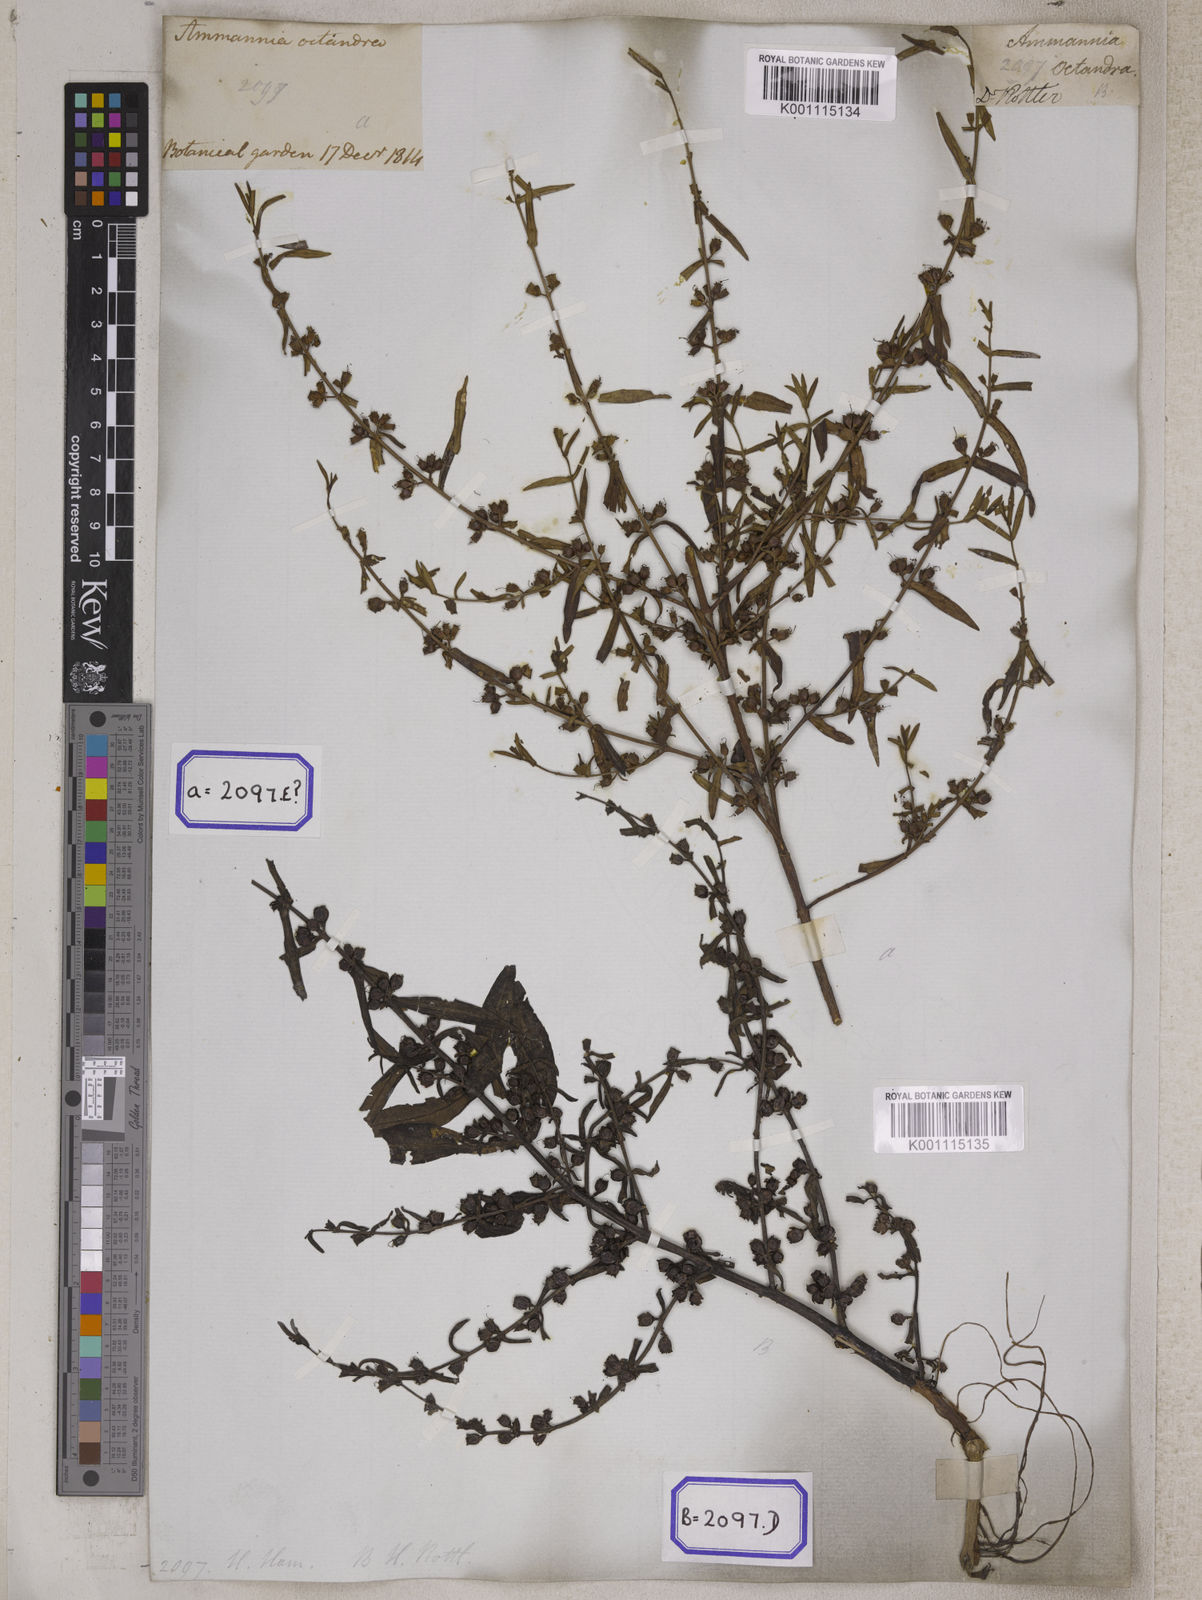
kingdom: Plantae
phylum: Tracheophyta
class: Magnoliopsida
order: Myrtales
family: Lythraceae
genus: Ammannia
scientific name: Ammannia octandra
